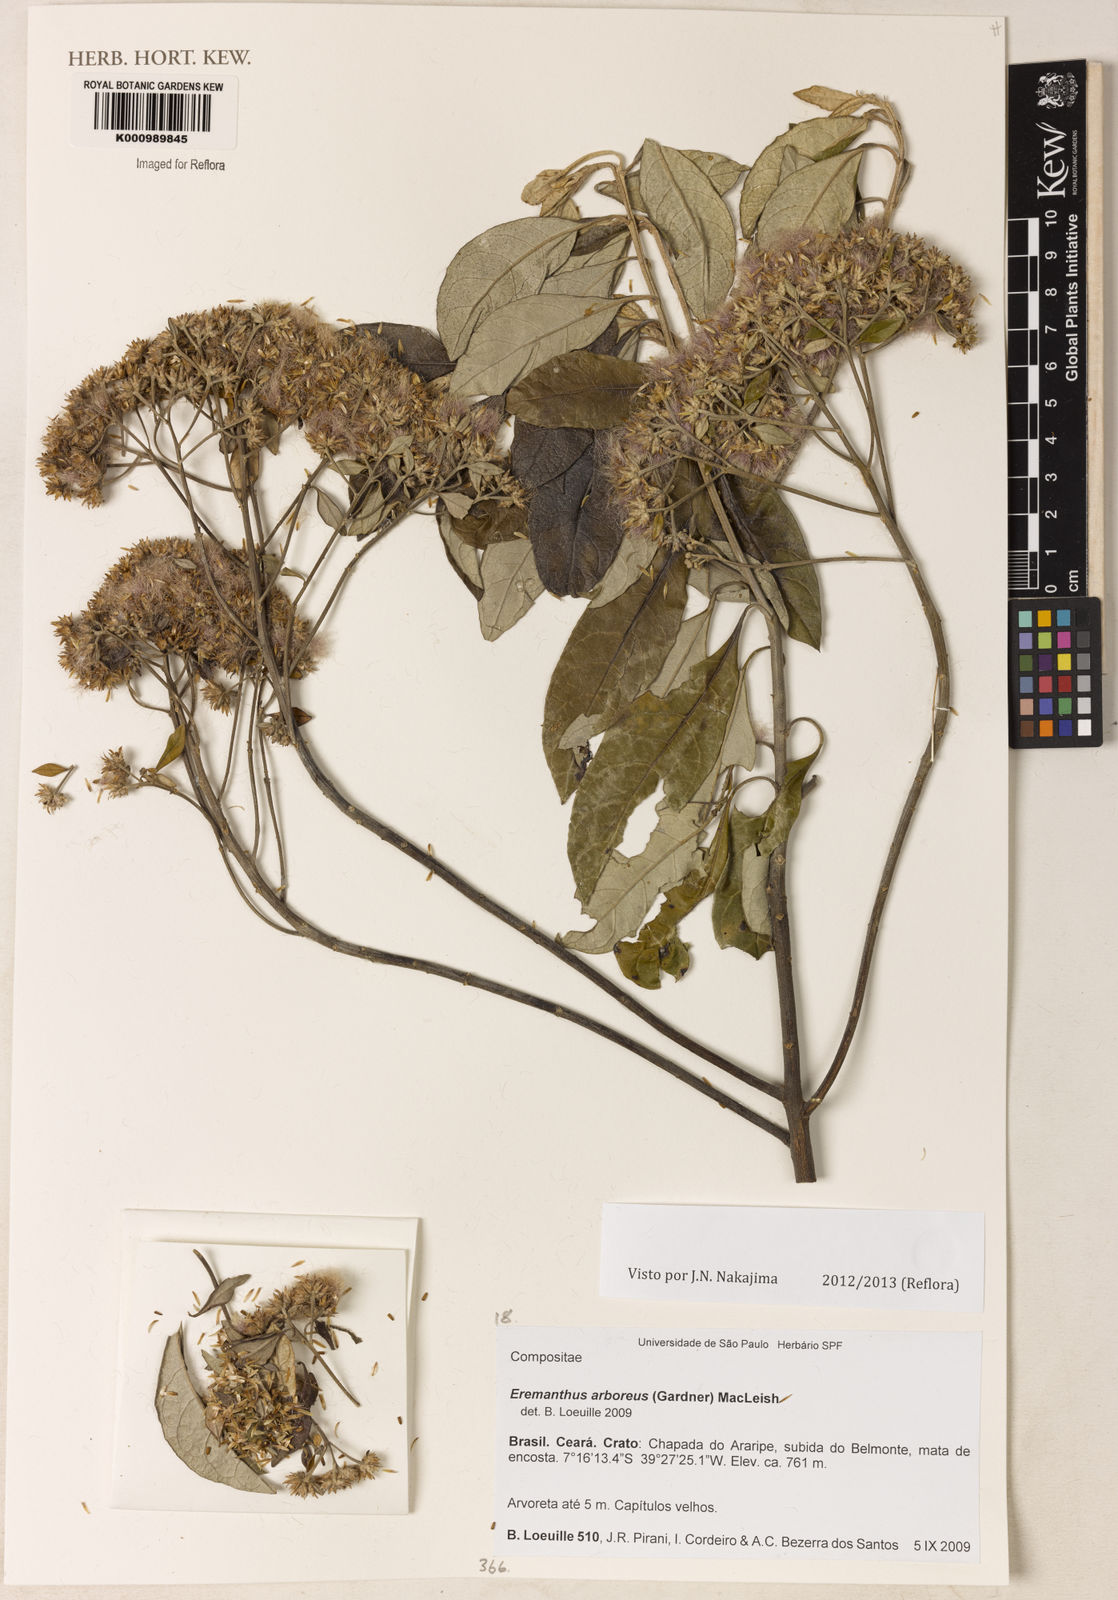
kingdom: Plantae
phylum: Tracheophyta
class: Magnoliopsida
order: Asterales
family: Asteraceae
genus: Eremanthus
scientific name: Eremanthus arboreus
